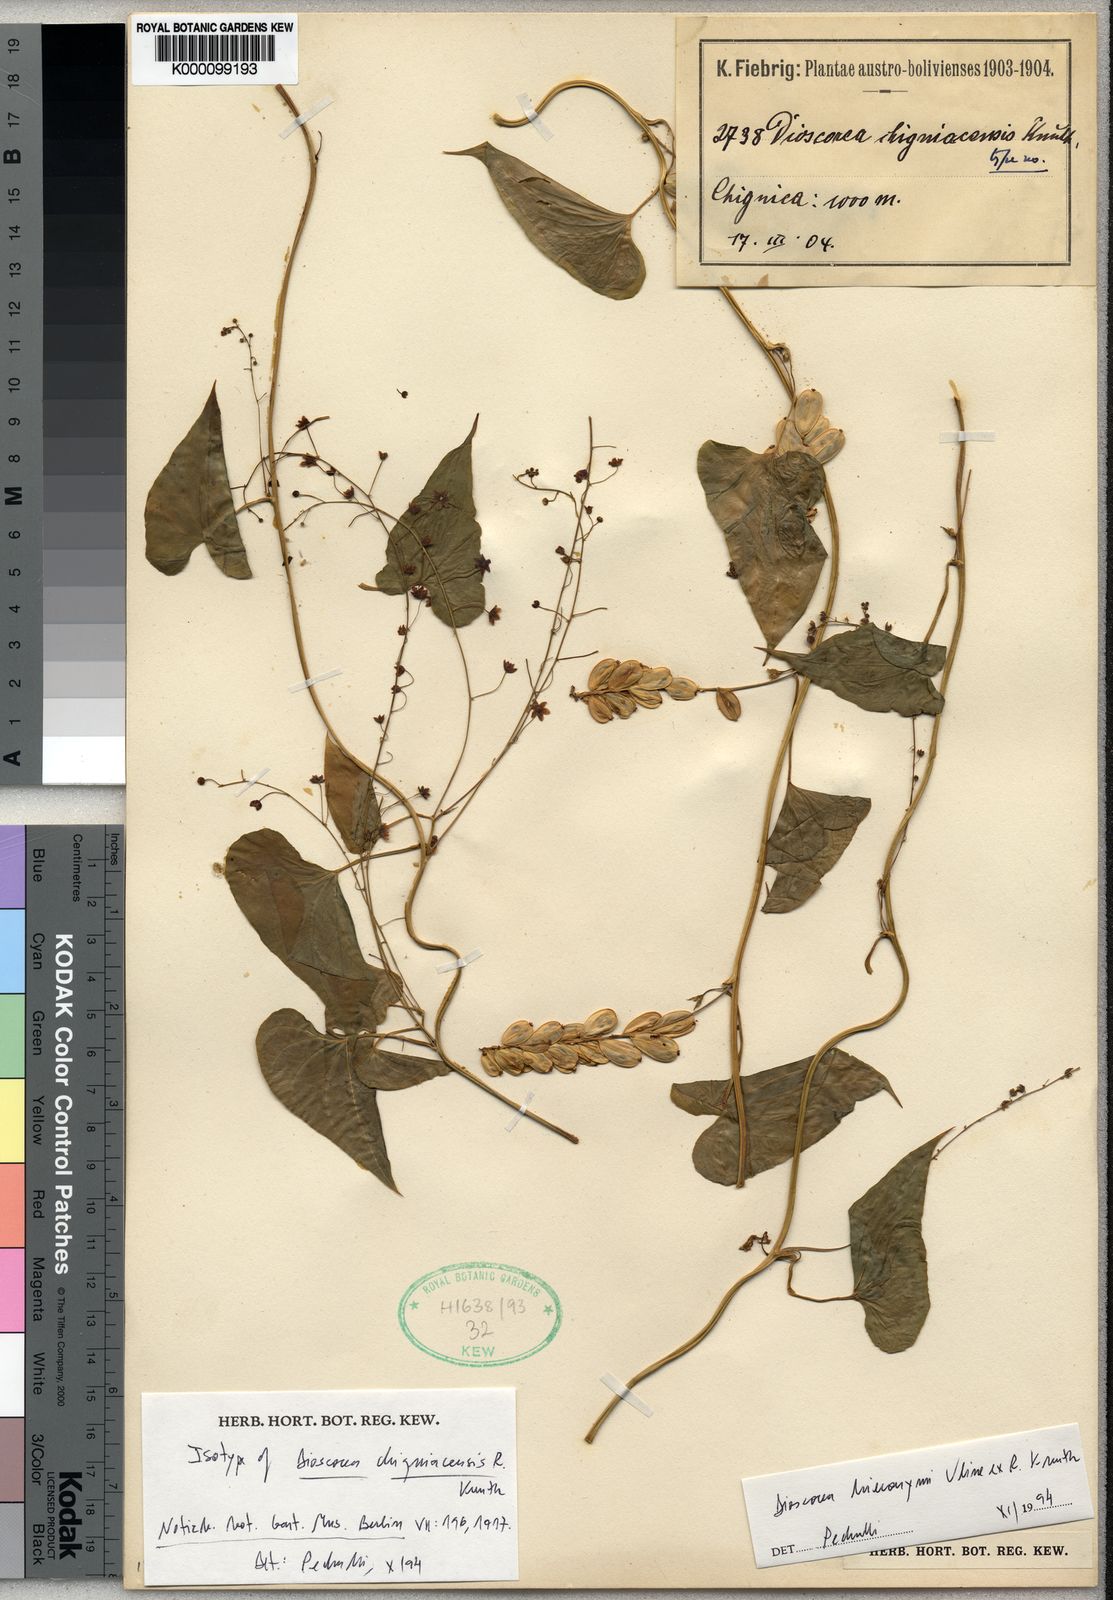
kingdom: Plantae
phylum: Tracheophyta
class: Liliopsida
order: Dioscoreales
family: Dioscoreaceae
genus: Dioscorea
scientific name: Dioscorea hieronymi
